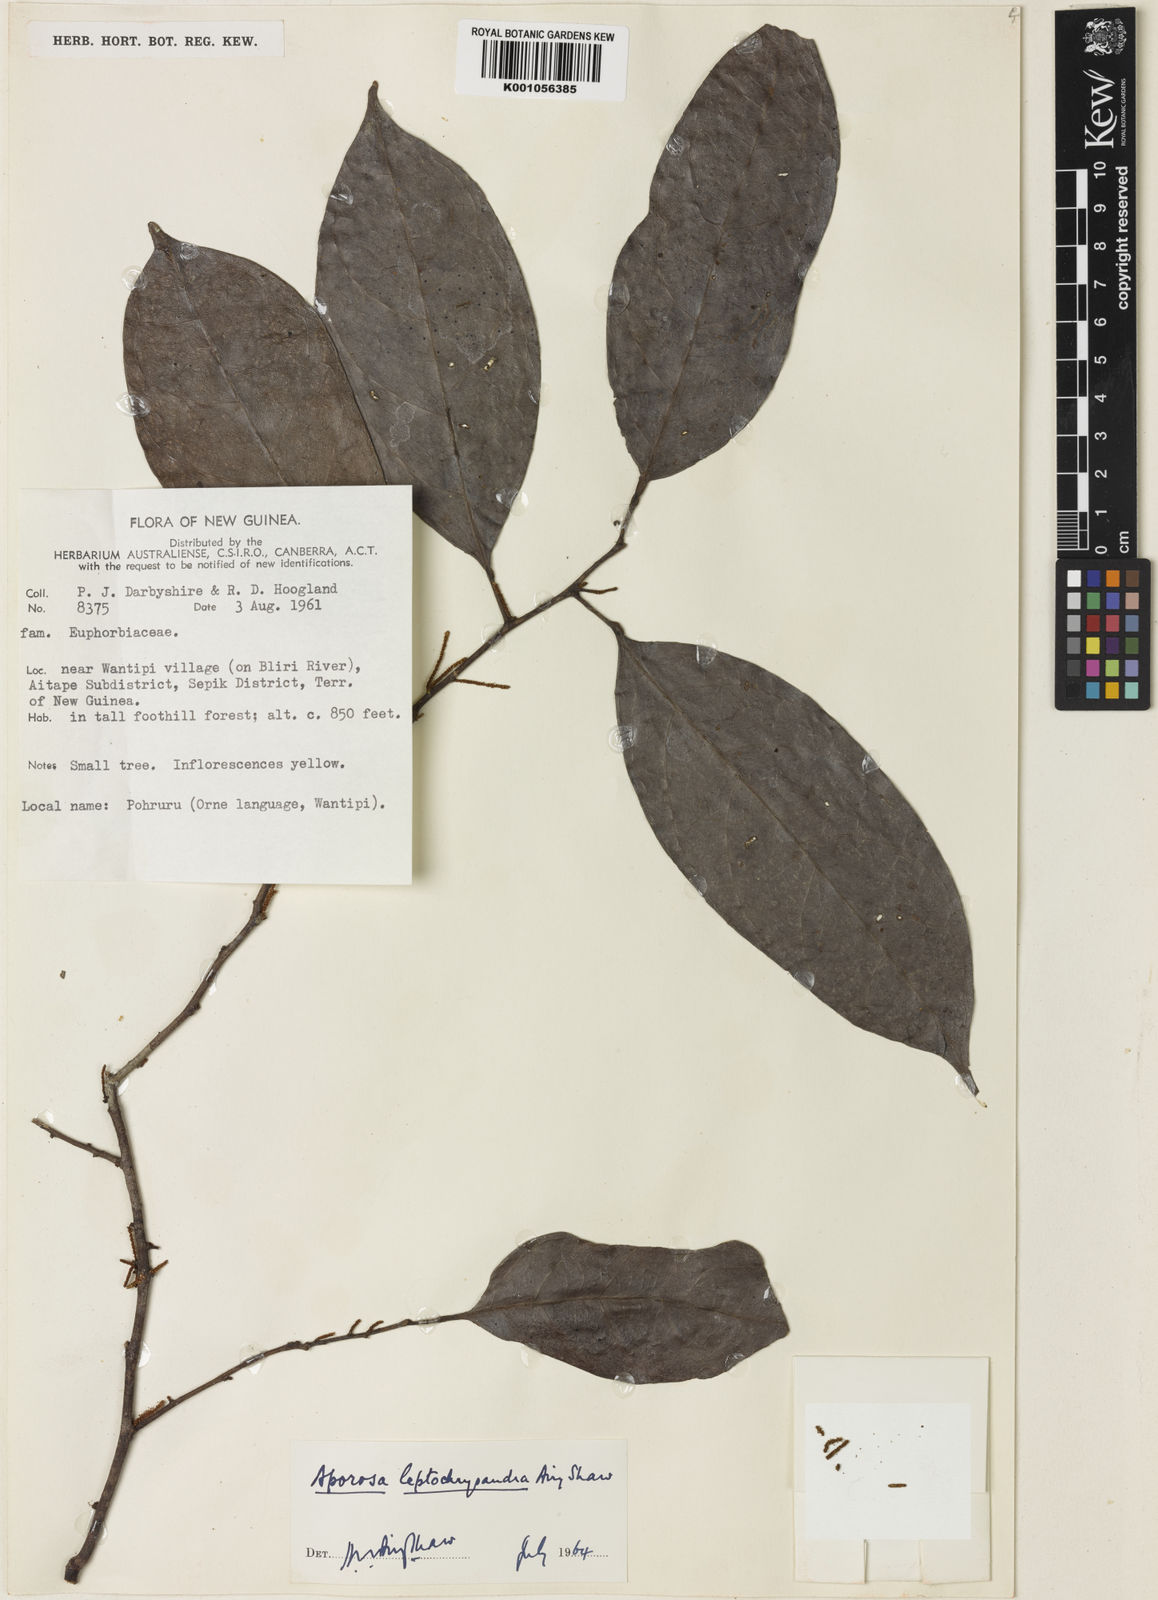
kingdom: Plantae
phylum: Tracheophyta
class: Magnoliopsida
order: Malpighiales
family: Phyllanthaceae
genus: Aporosa
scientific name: Aporosa leptochrysandra
